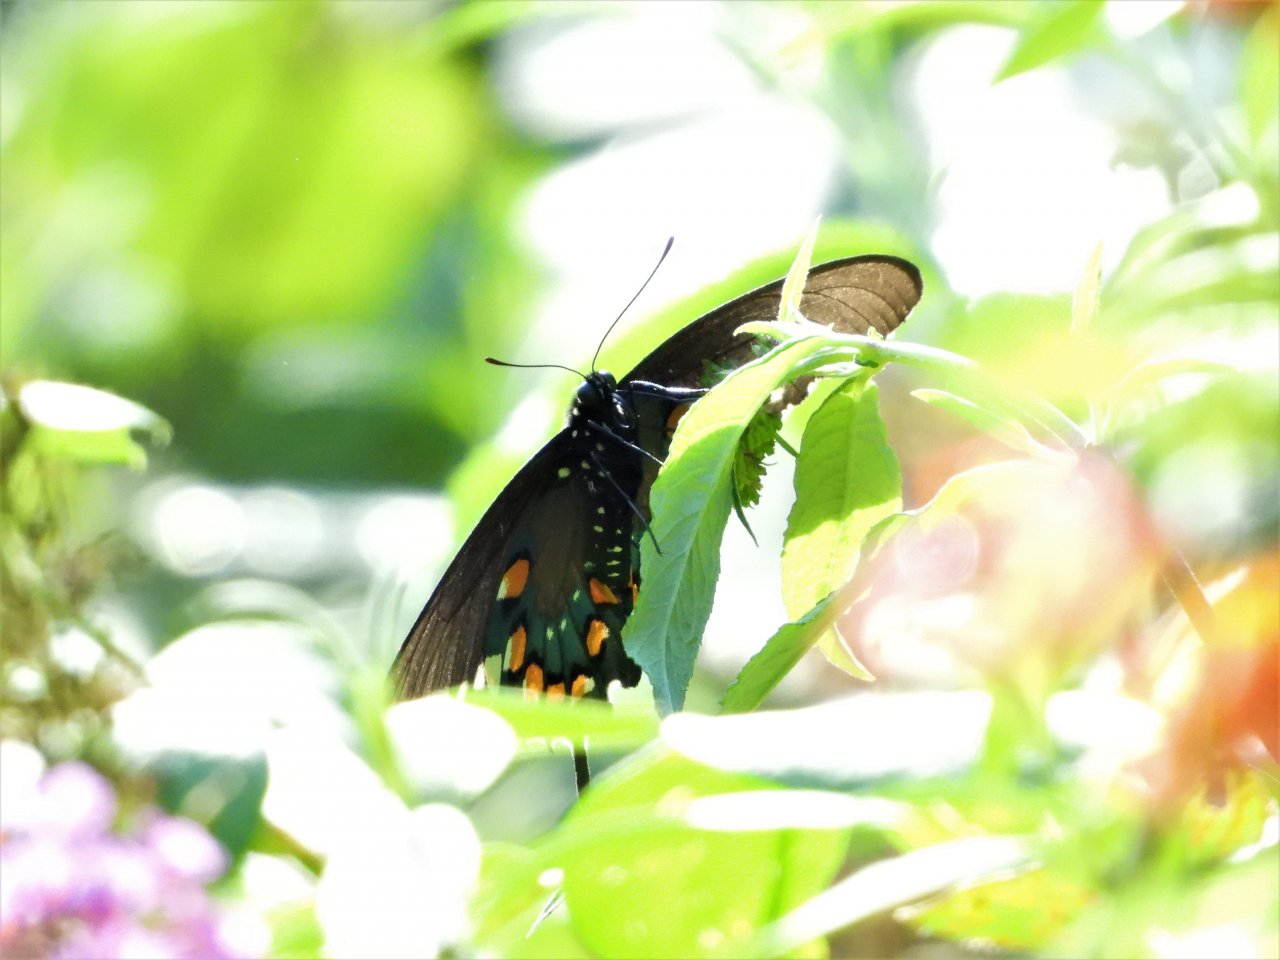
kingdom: Animalia
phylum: Arthropoda
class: Insecta
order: Lepidoptera
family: Papilionidae
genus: Battus
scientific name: Battus philenor
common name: Pipevine Swallowtail
